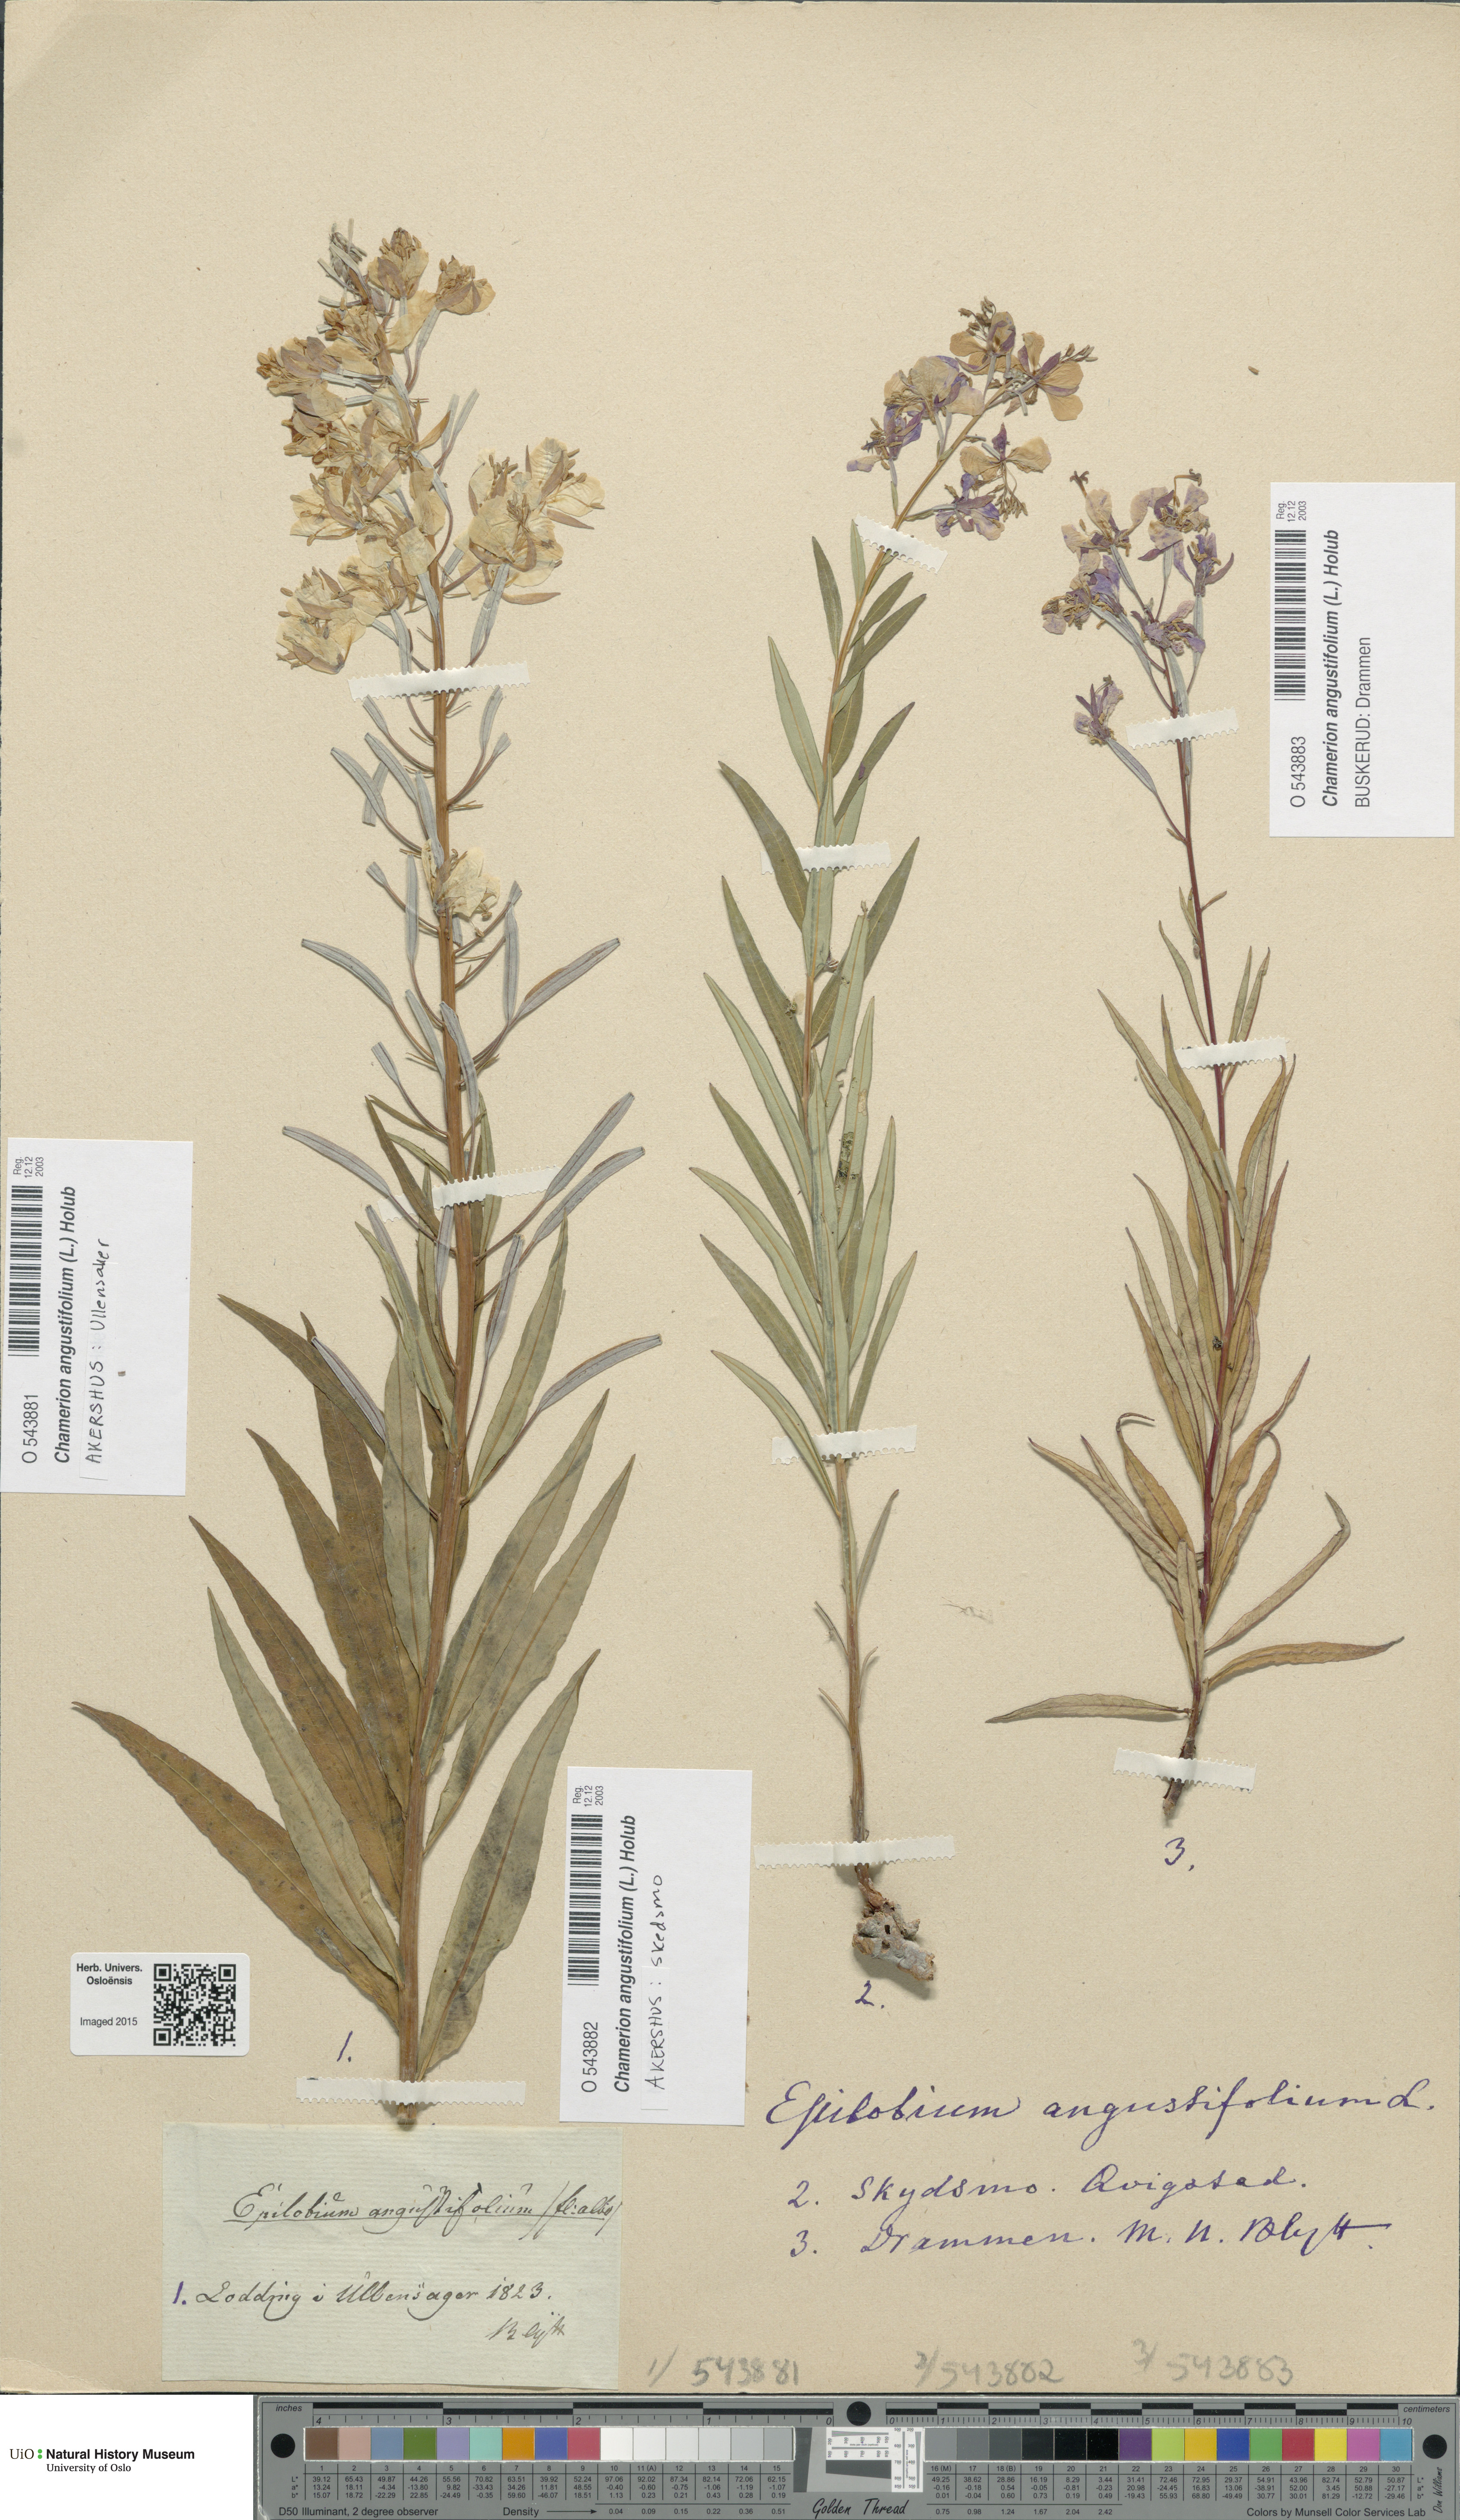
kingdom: Plantae
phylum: Tracheophyta
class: Magnoliopsida
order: Myrtales
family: Onagraceae
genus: Chamaenerion
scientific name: Chamaenerion angustifolium
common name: Fireweed
